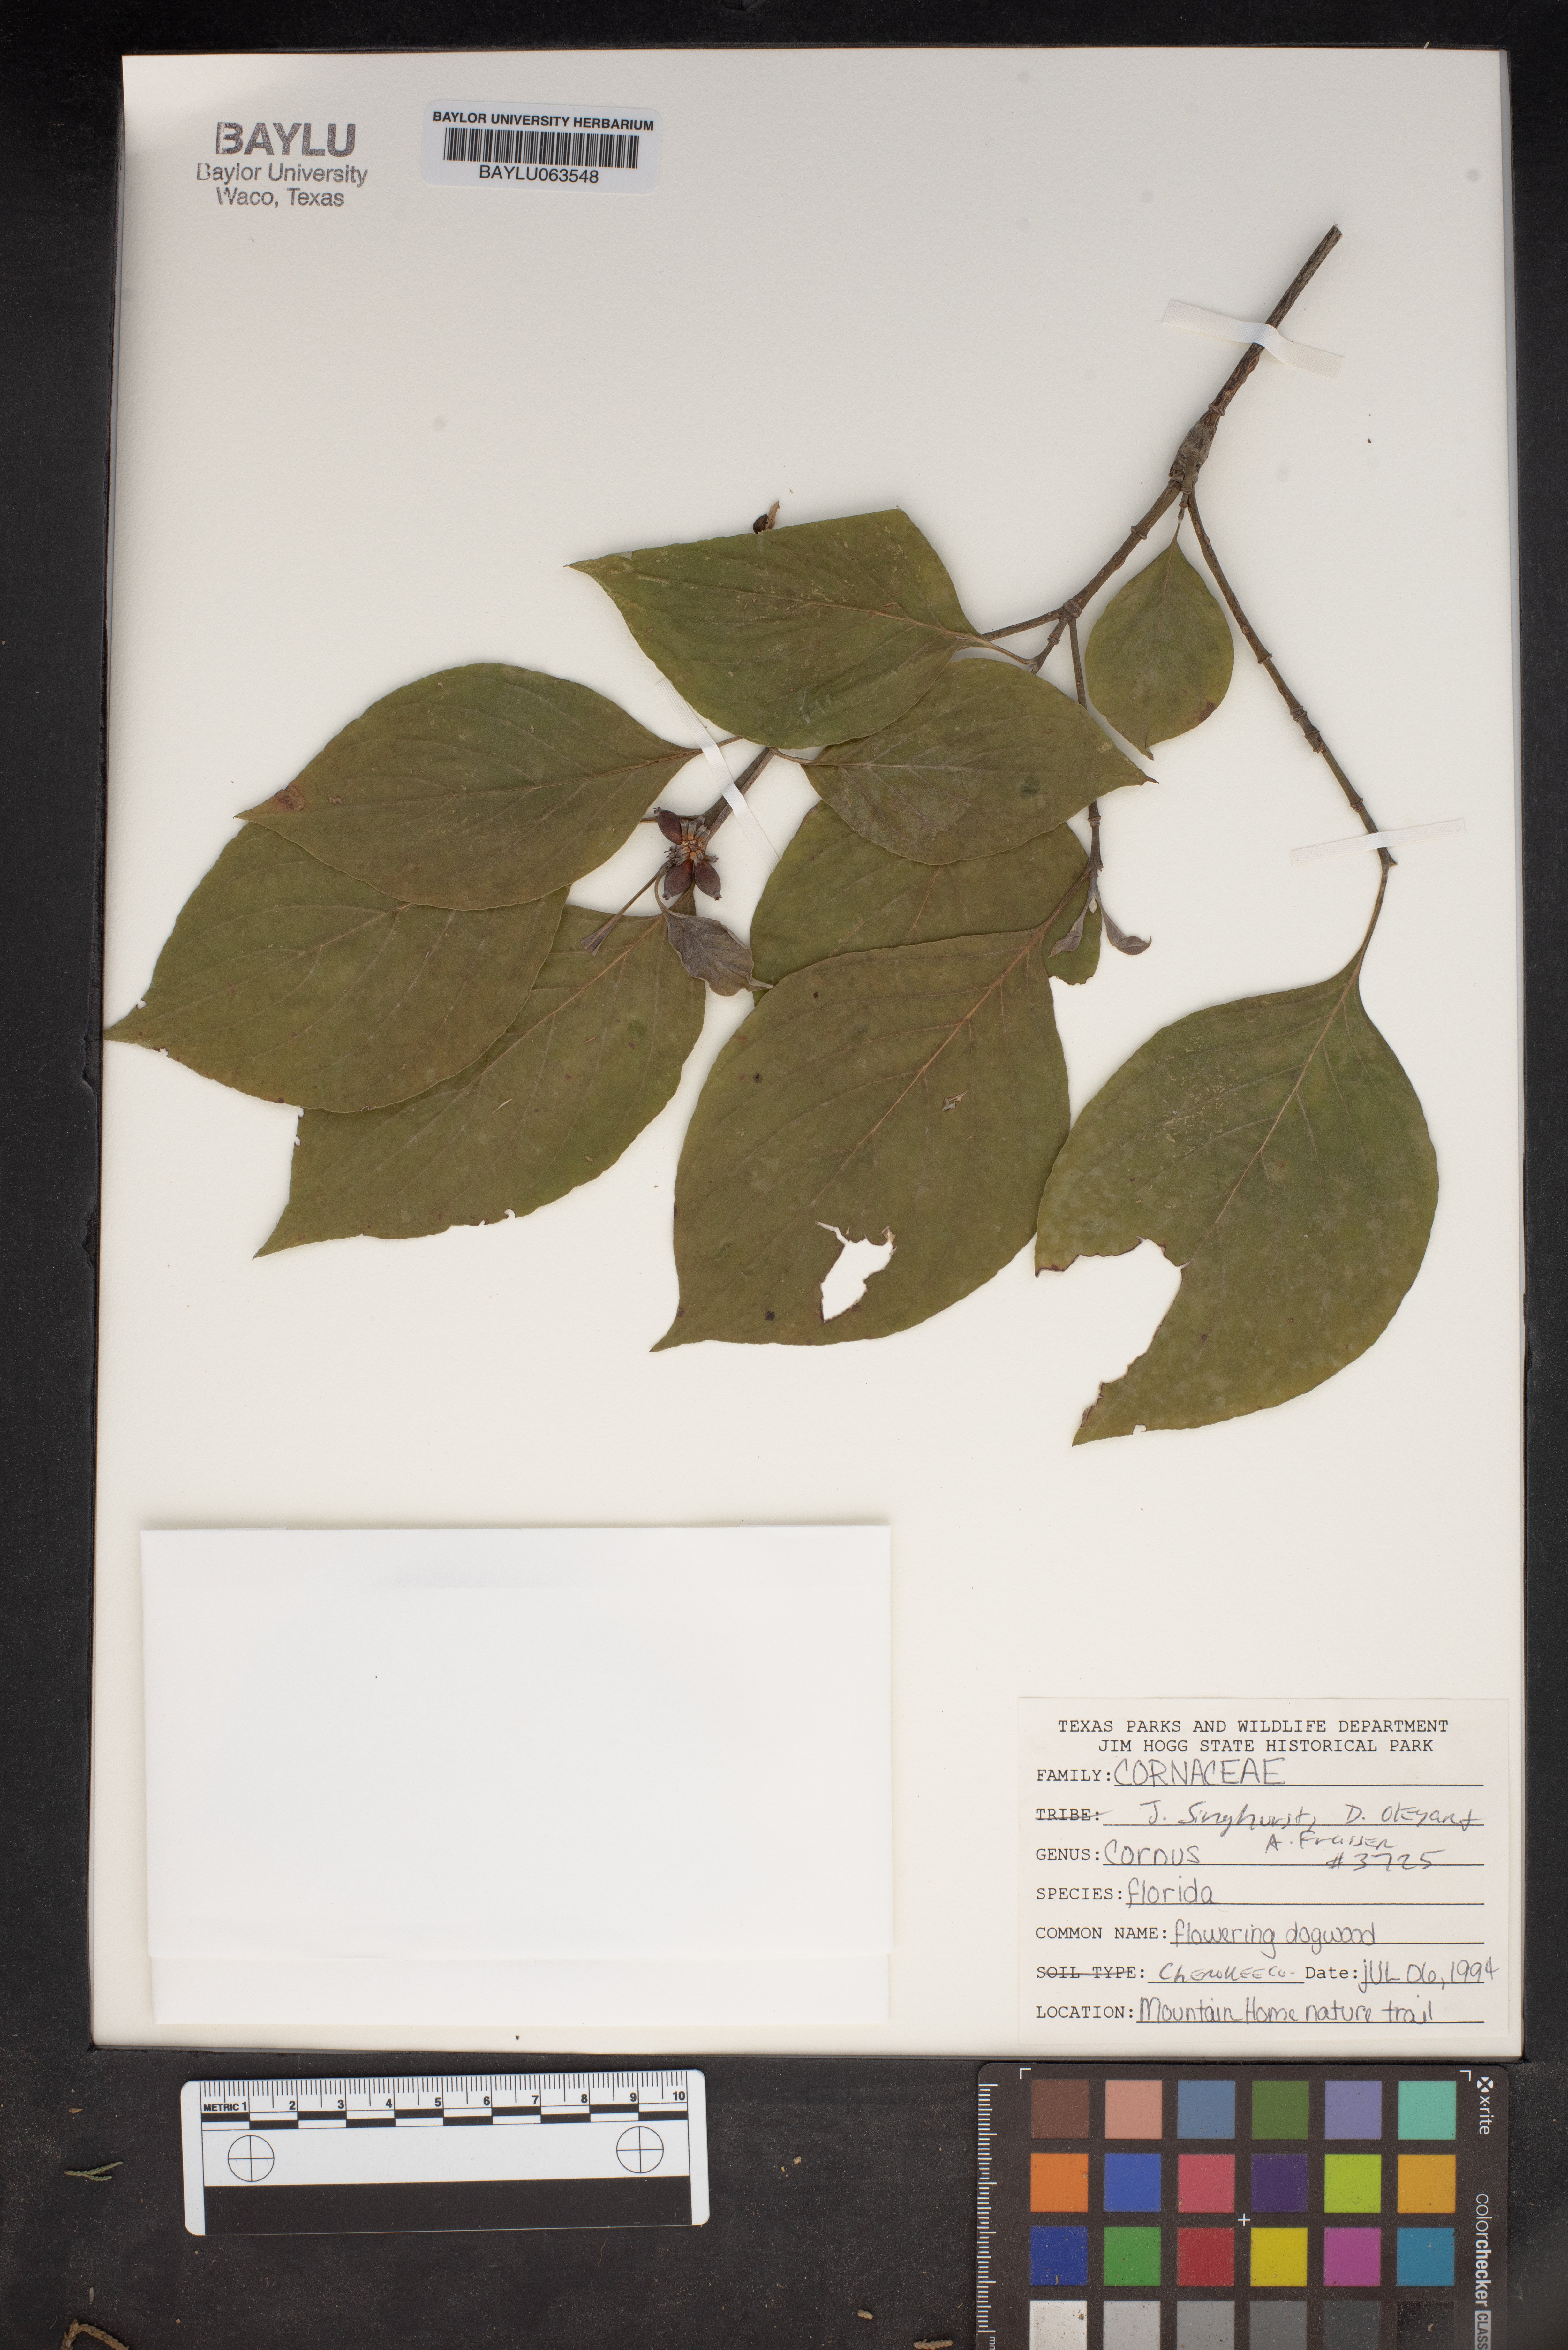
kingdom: Plantae
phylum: Tracheophyta
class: Magnoliopsida
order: Cornales
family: Cornaceae
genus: Cornus
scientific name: Cornus florida
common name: Flowering dogwood
